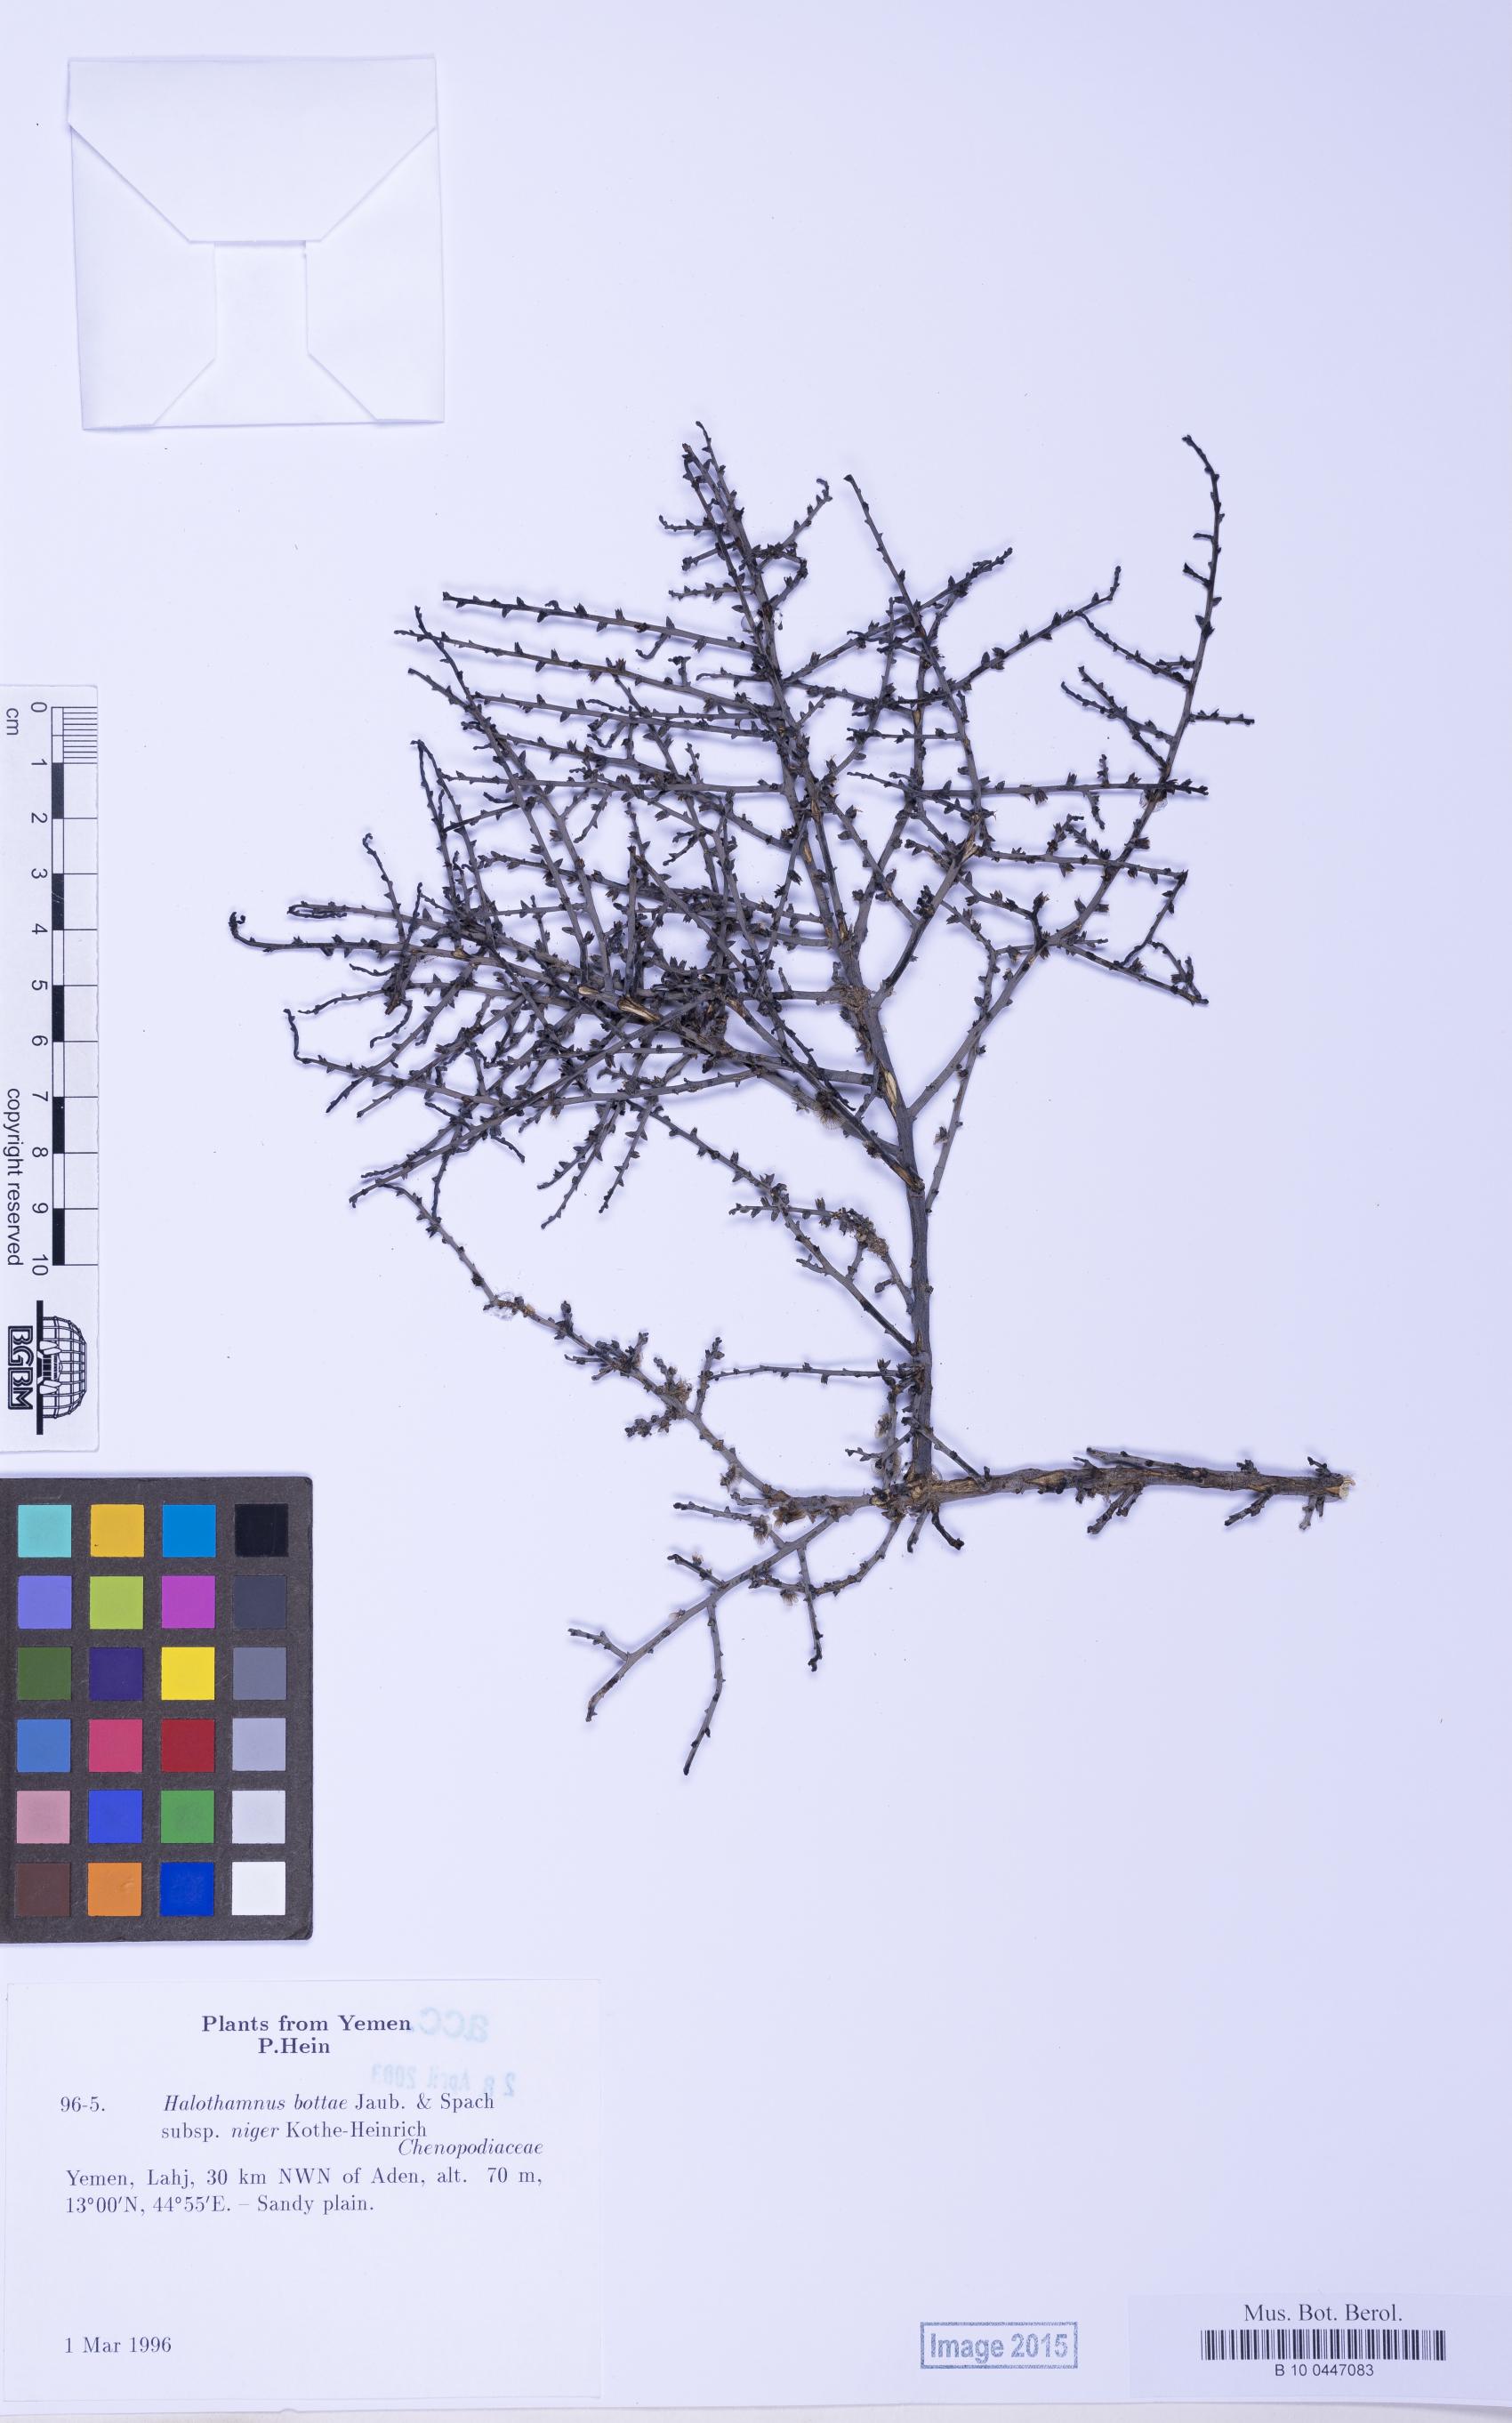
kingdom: Plantae
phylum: Tracheophyta
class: Magnoliopsida
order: Caryophyllales
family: Amaranthaceae
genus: Halothamnus
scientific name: Halothamnus bottae
